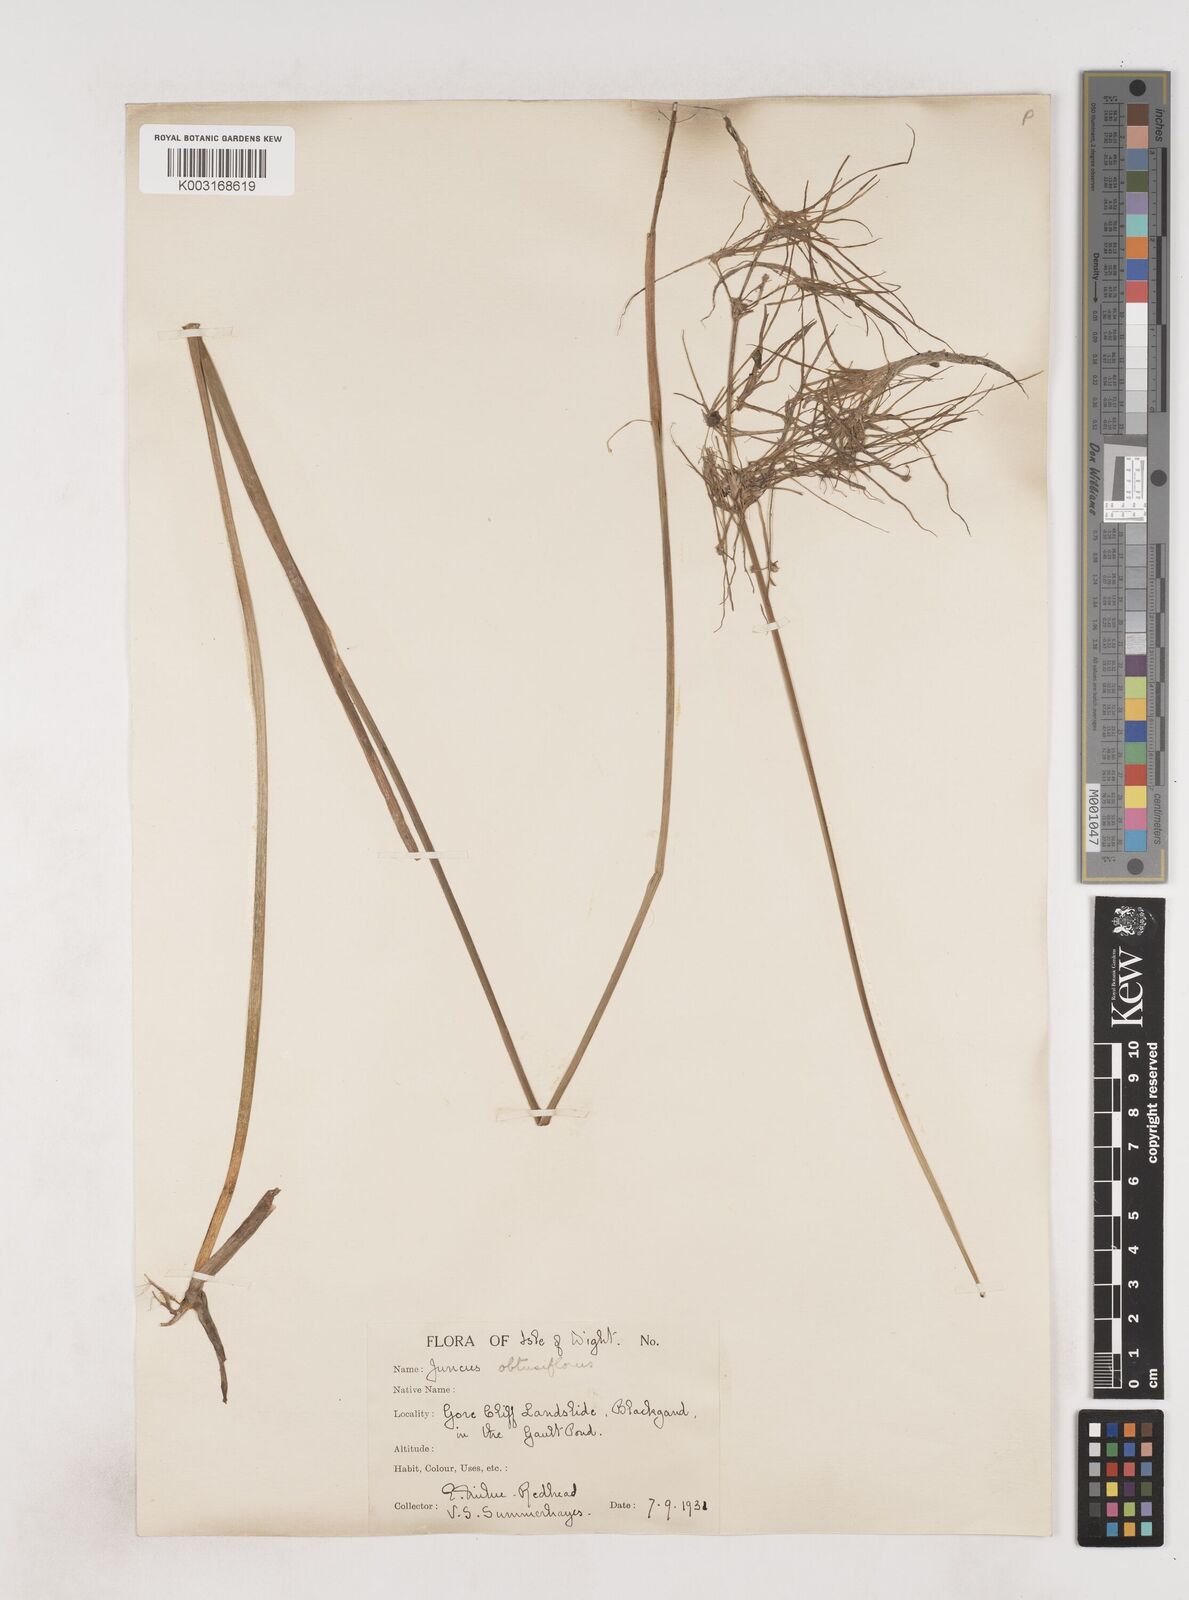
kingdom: Plantae
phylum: Tracheophyta
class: Liliopsida
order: Poales
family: Juncaceae
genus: Juncus
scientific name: Juncus subnodulosus
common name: Blunt-flowered rush
